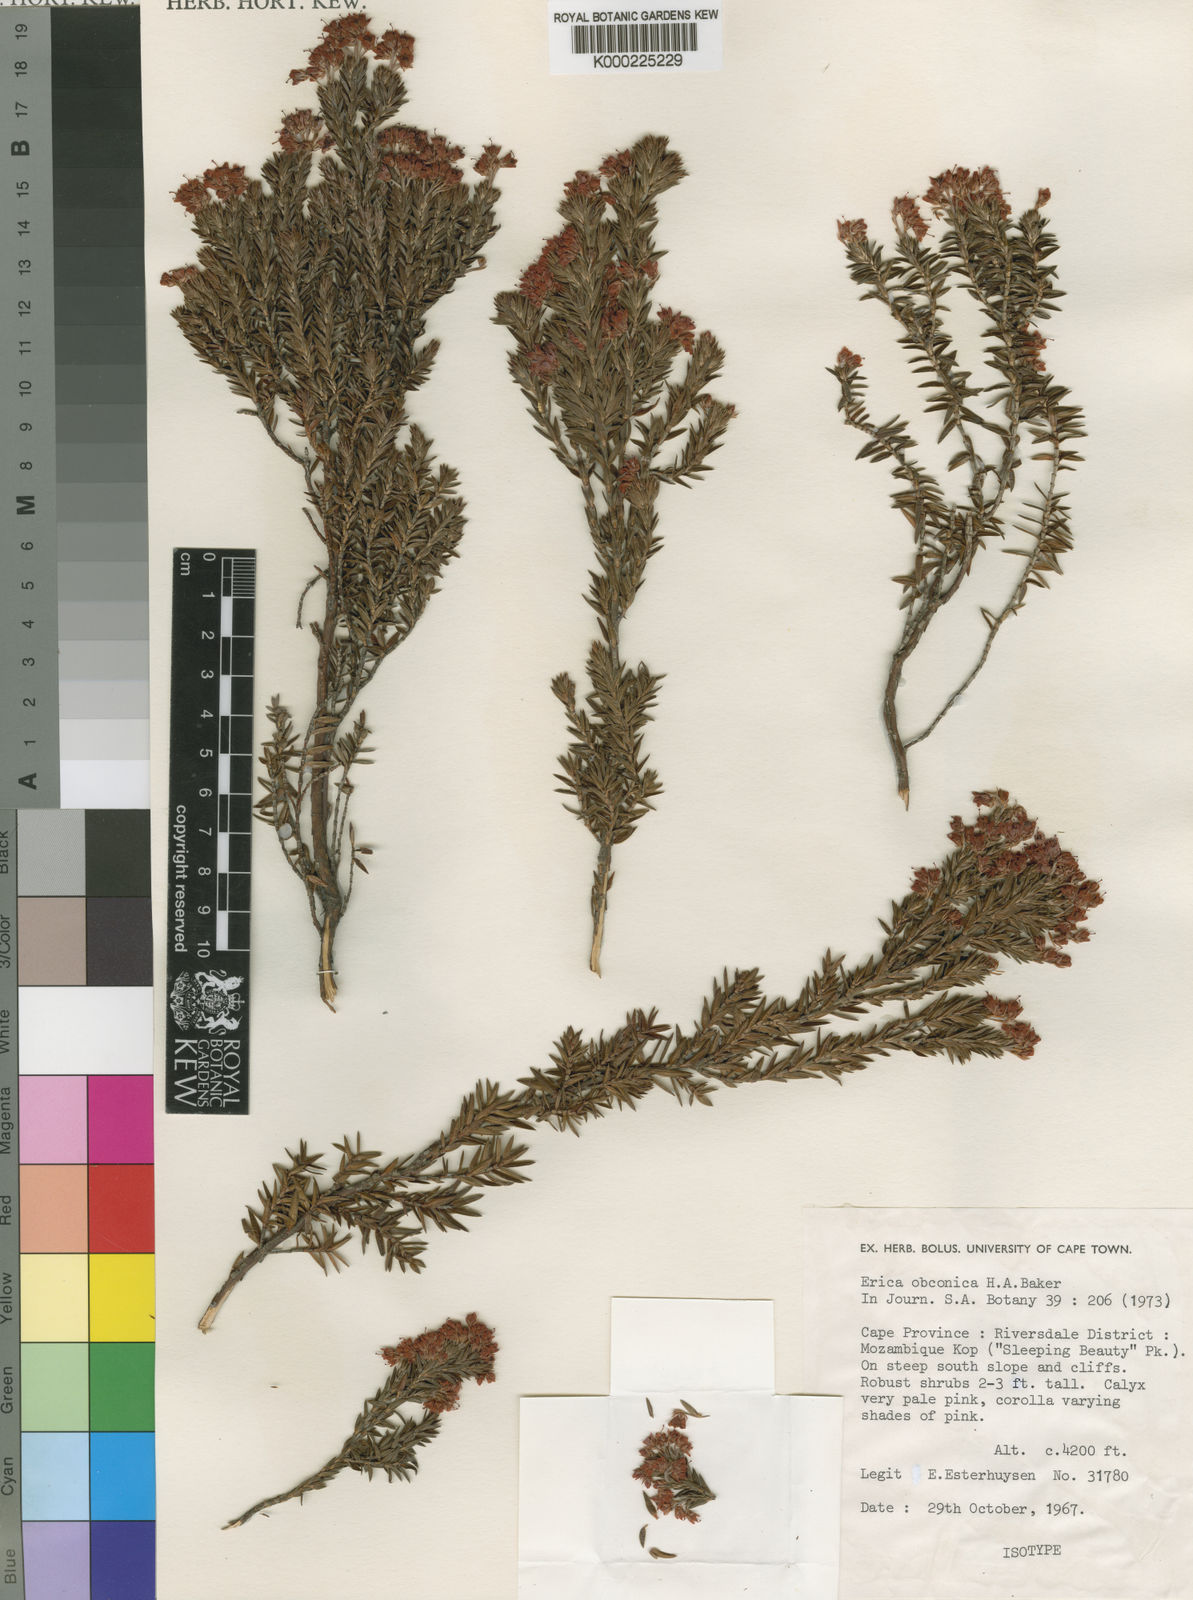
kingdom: Plantae
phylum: Tracheophyta
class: Magnoliopsida
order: Ericales
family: Ericaceae
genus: Erica
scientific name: Erica obconica
